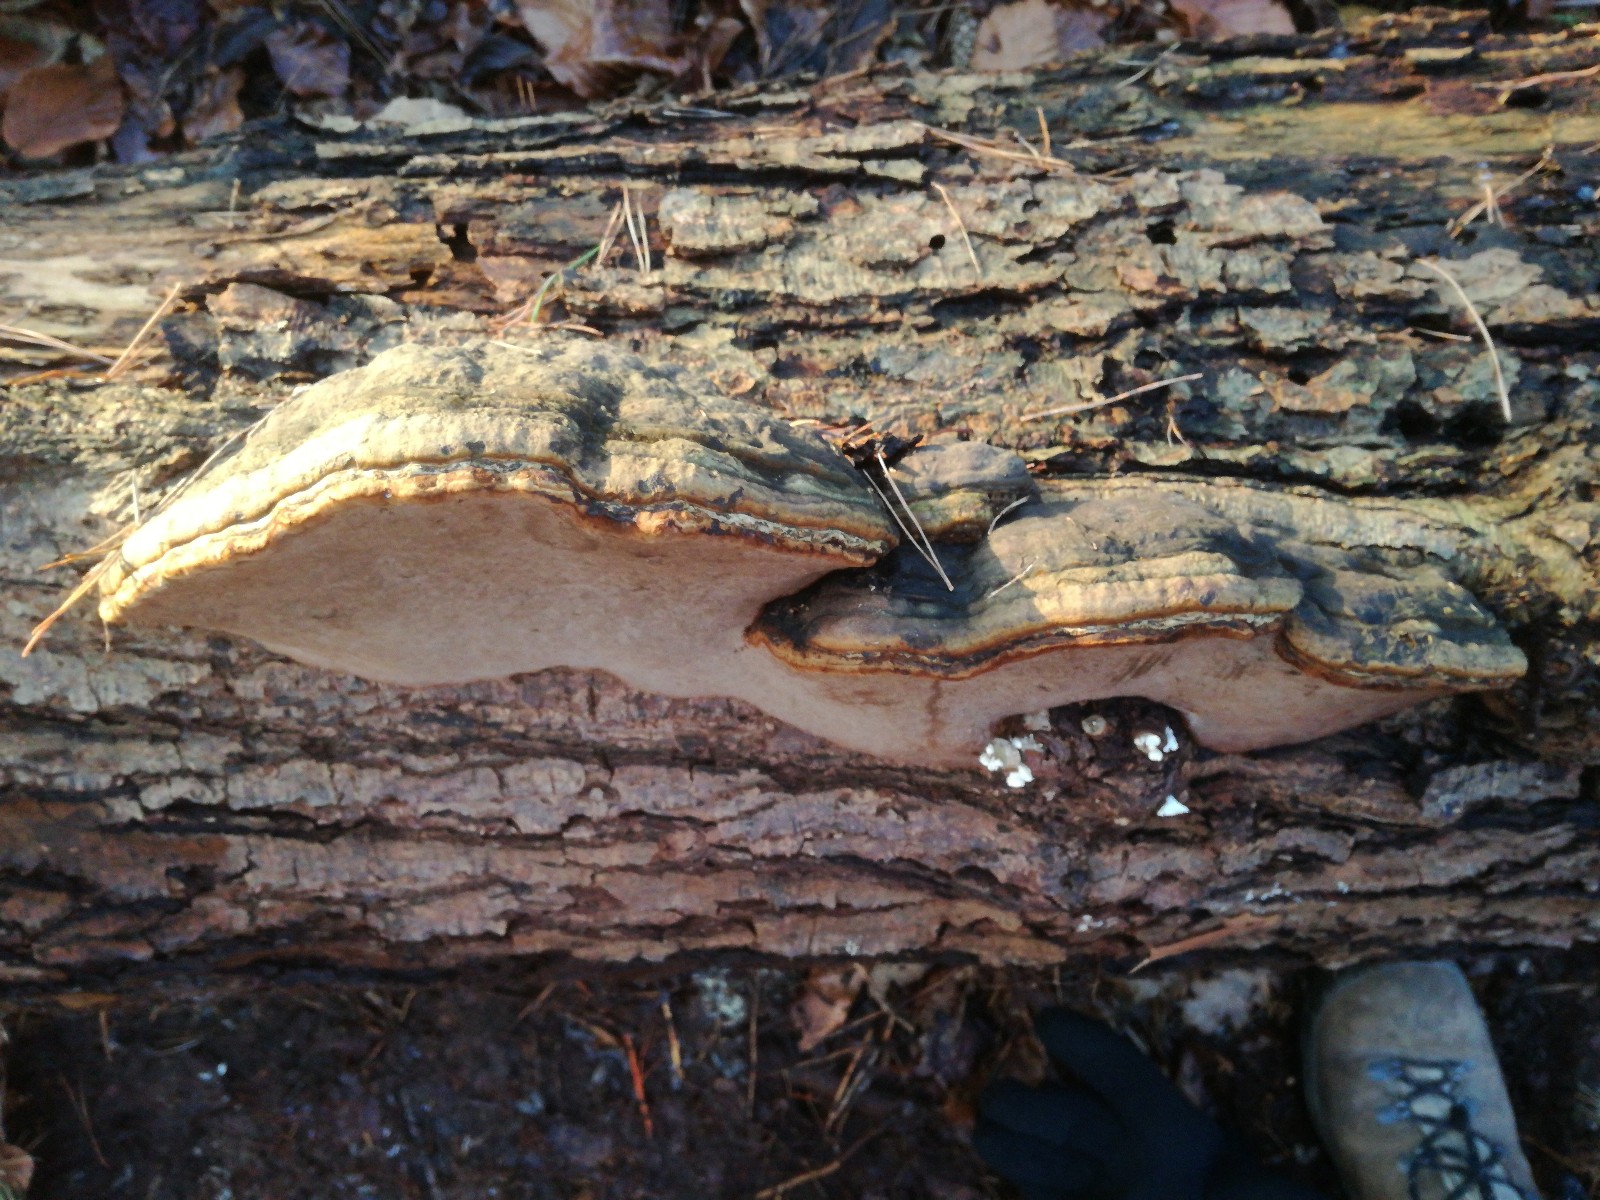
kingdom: Fungi
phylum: Basidiomycota
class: Agaricomycetes
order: Polyporales
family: Polyporaceae
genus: Fomes
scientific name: Fomes fomentarius
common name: tøndersvamp
